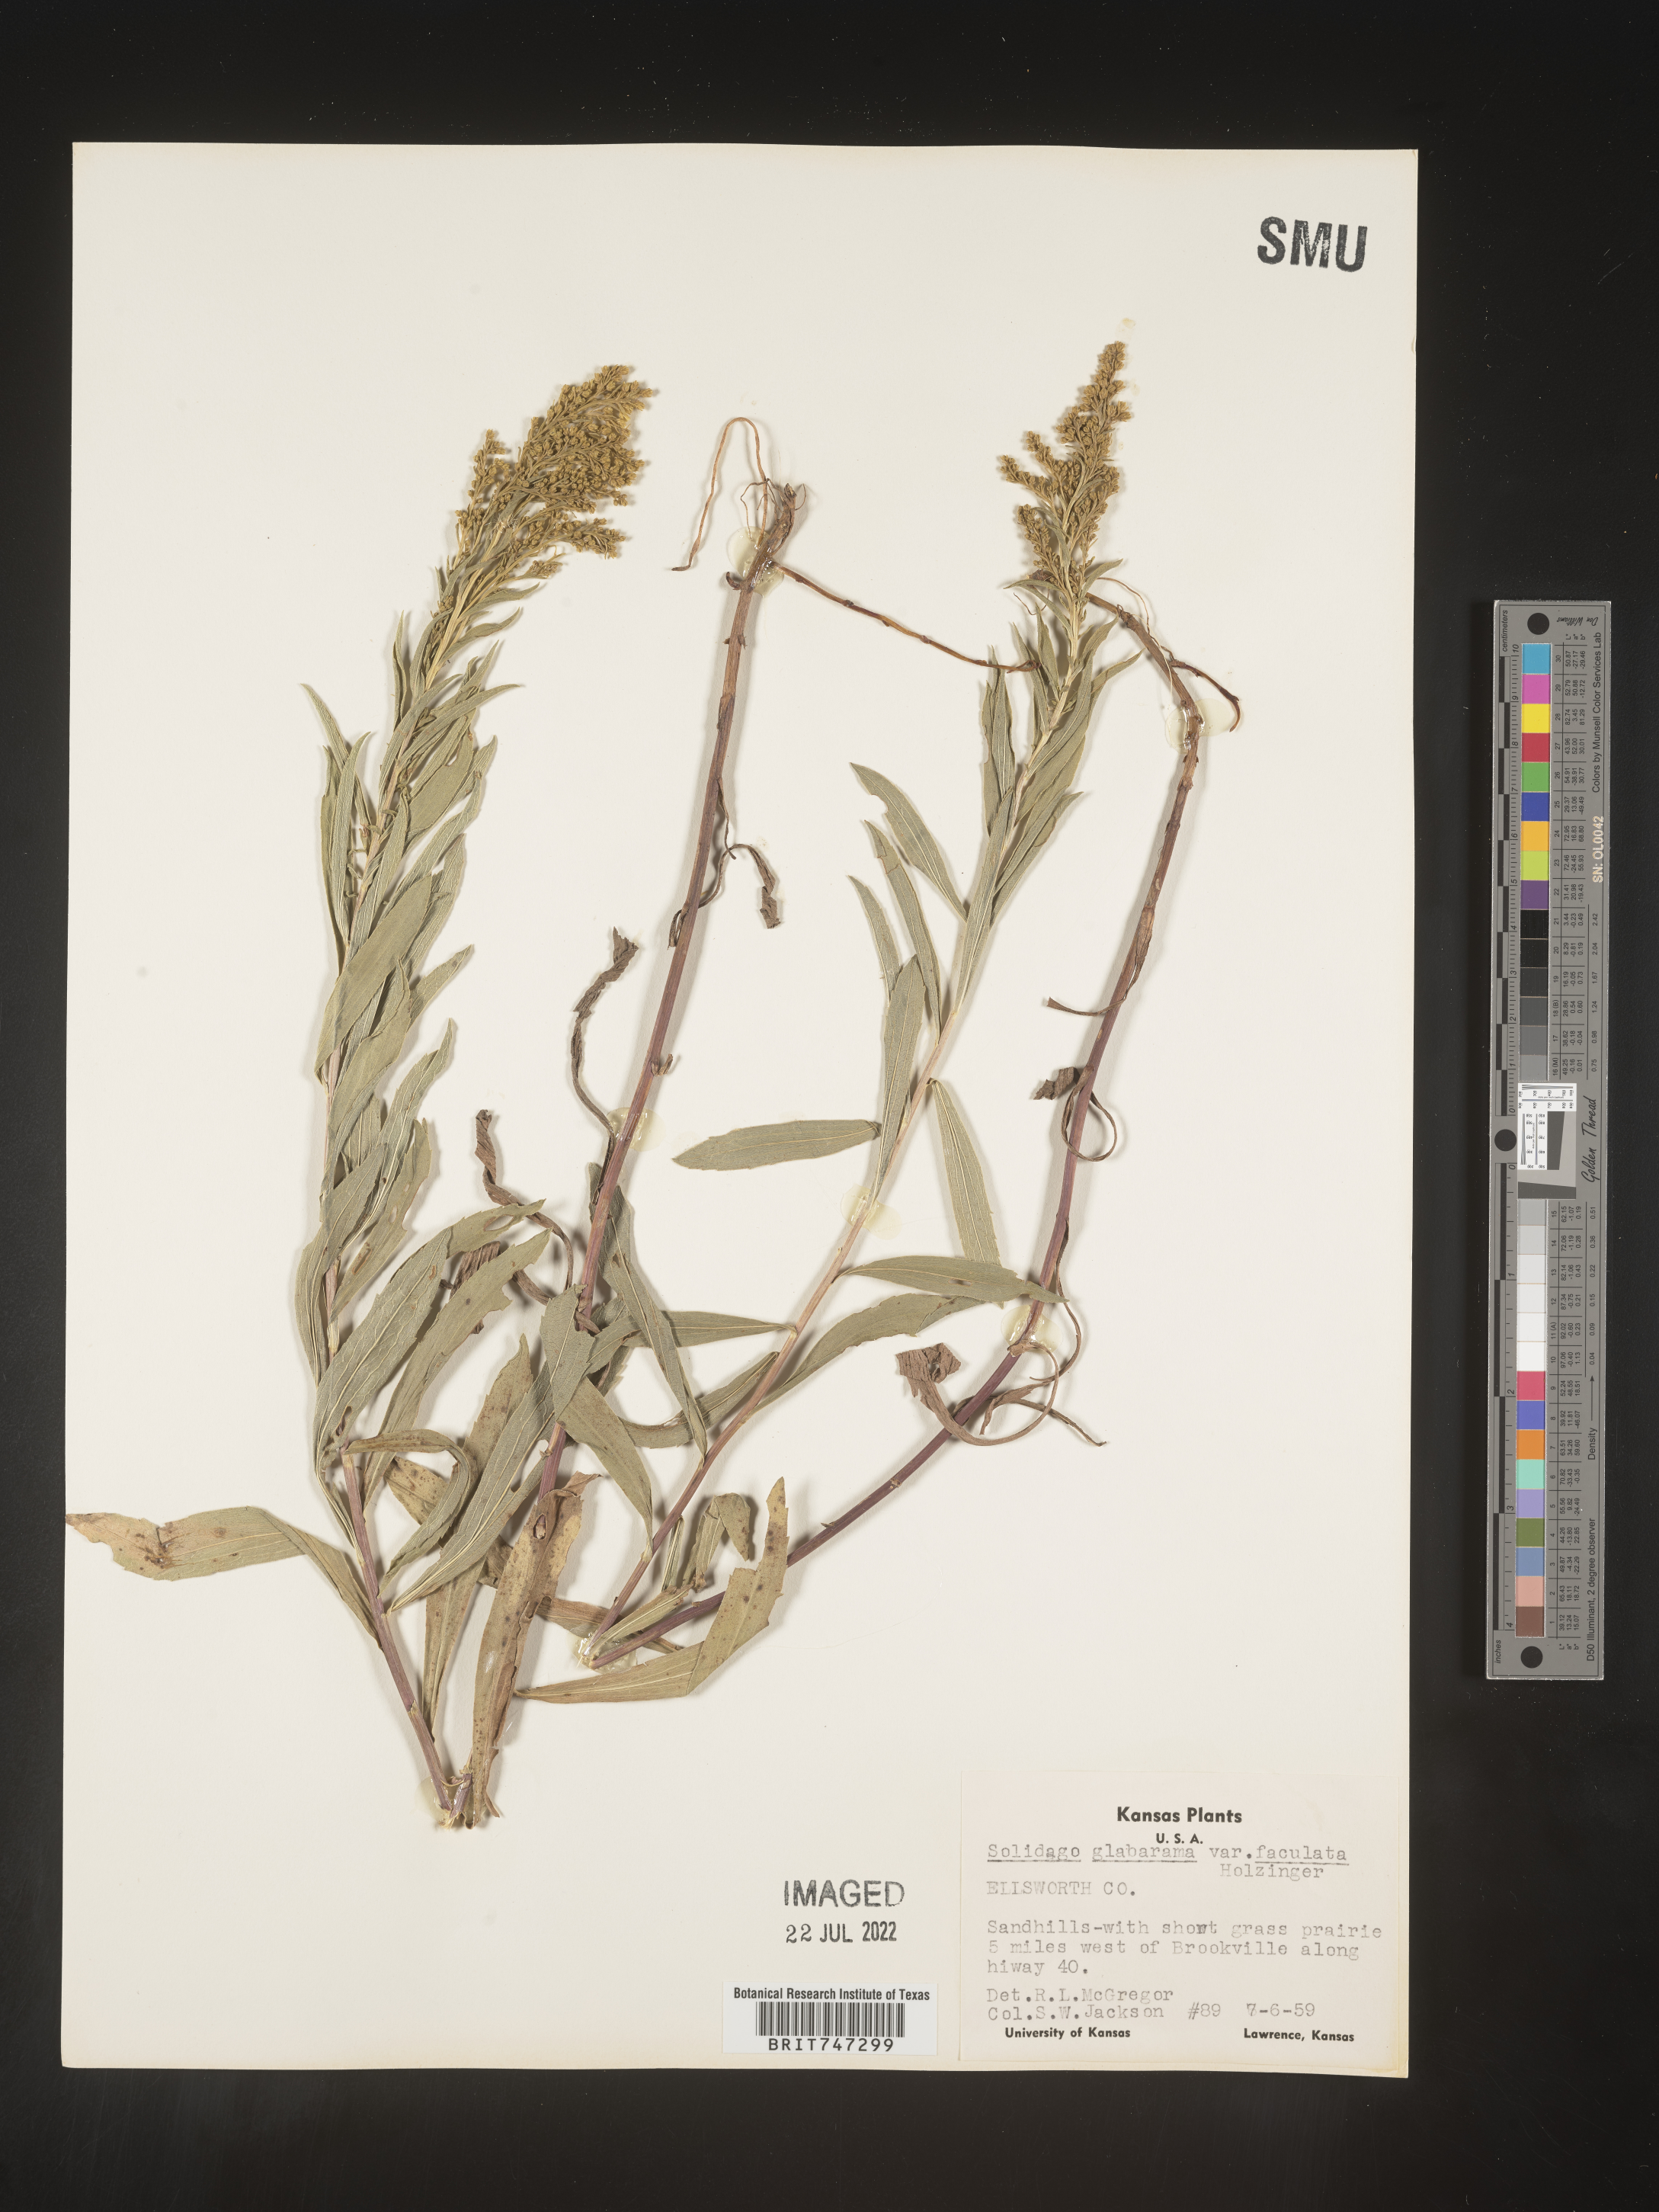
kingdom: Plantae
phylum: Tracheophyta
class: Magnoliopsida
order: Asterales
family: Asteraceae
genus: Solidago
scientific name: Solidago missouriensis
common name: Prairie goldenrod
